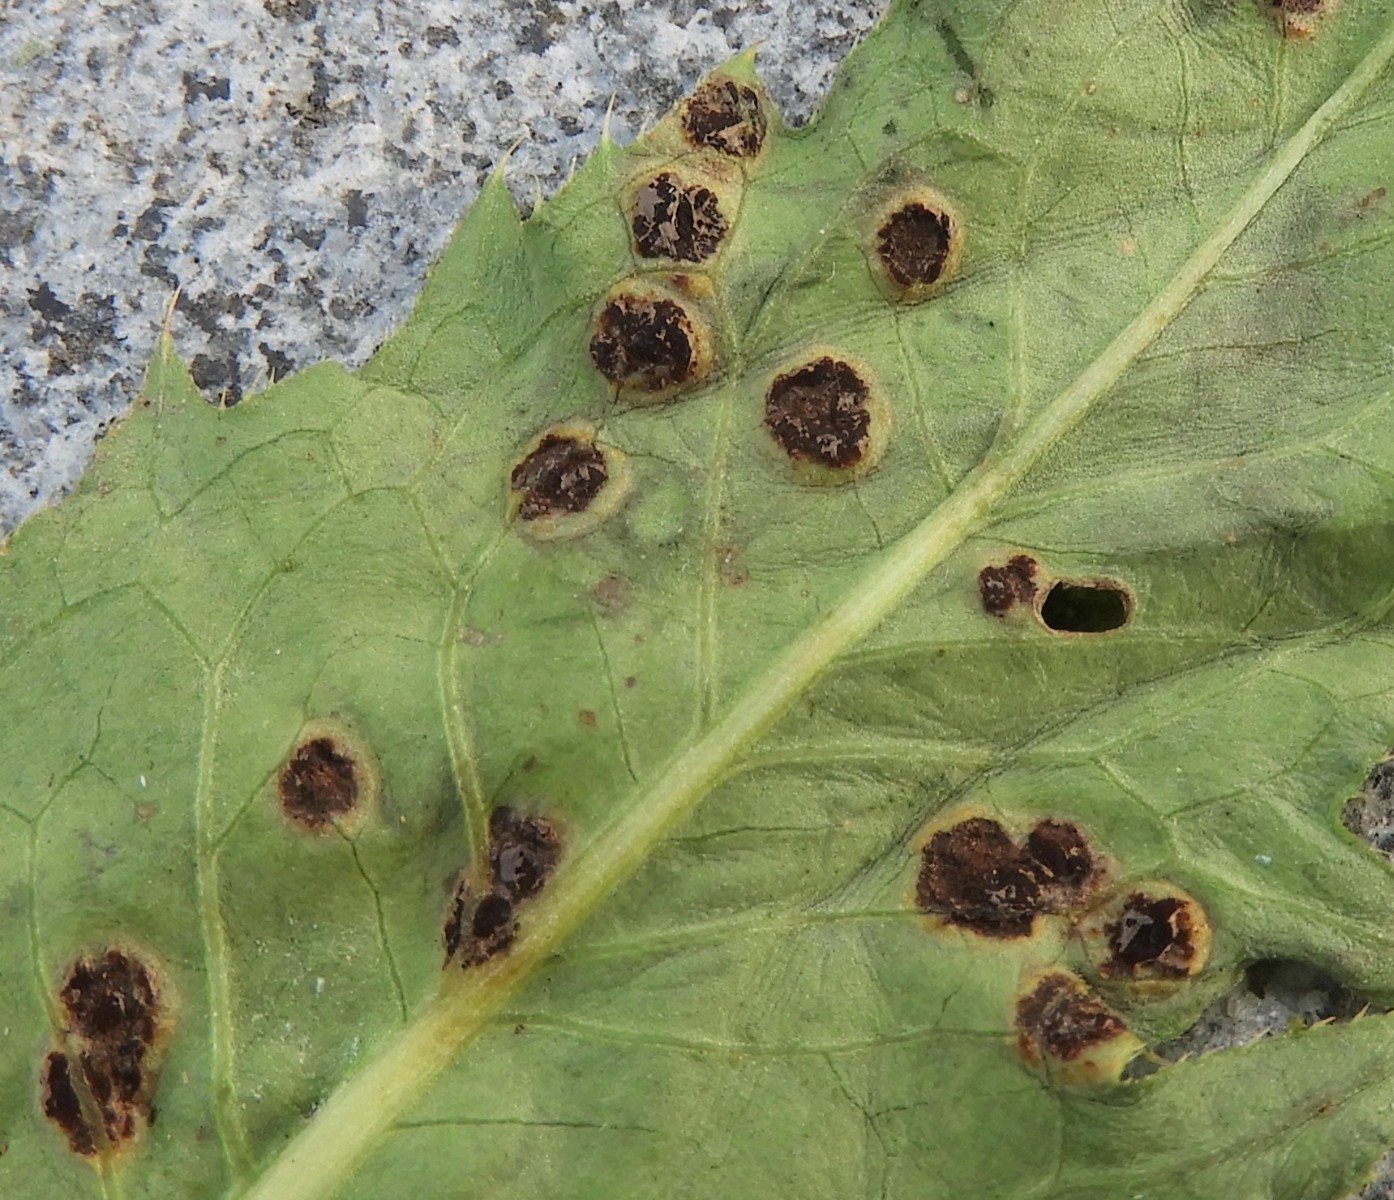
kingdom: Fungi
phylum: Basidiomycota
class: Pucciniomycetes
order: Pucciniales
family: Pucciniaceae
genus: Puccinia
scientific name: Puccinia cnici-oleracei
